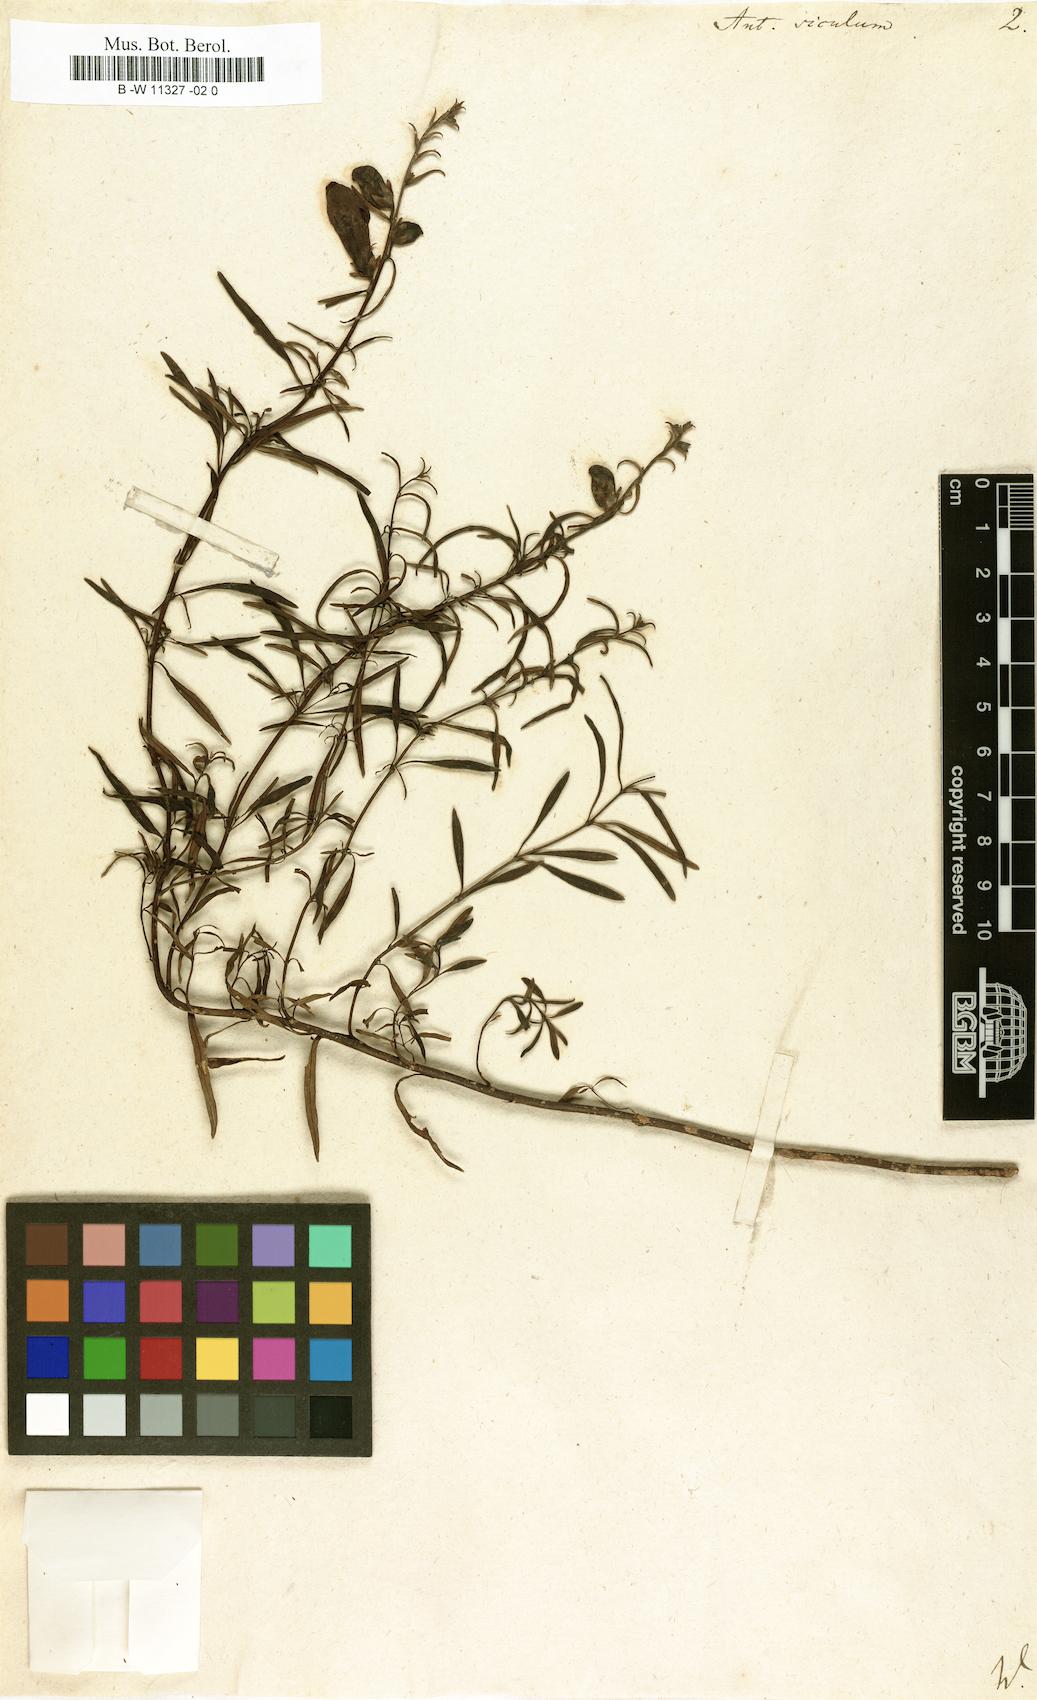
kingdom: Plantae
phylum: Tracheophyta
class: Magnoliopsida
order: Lamiales
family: Plantaginaceae
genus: Antirrhinum
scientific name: Antirrhinum siculum
